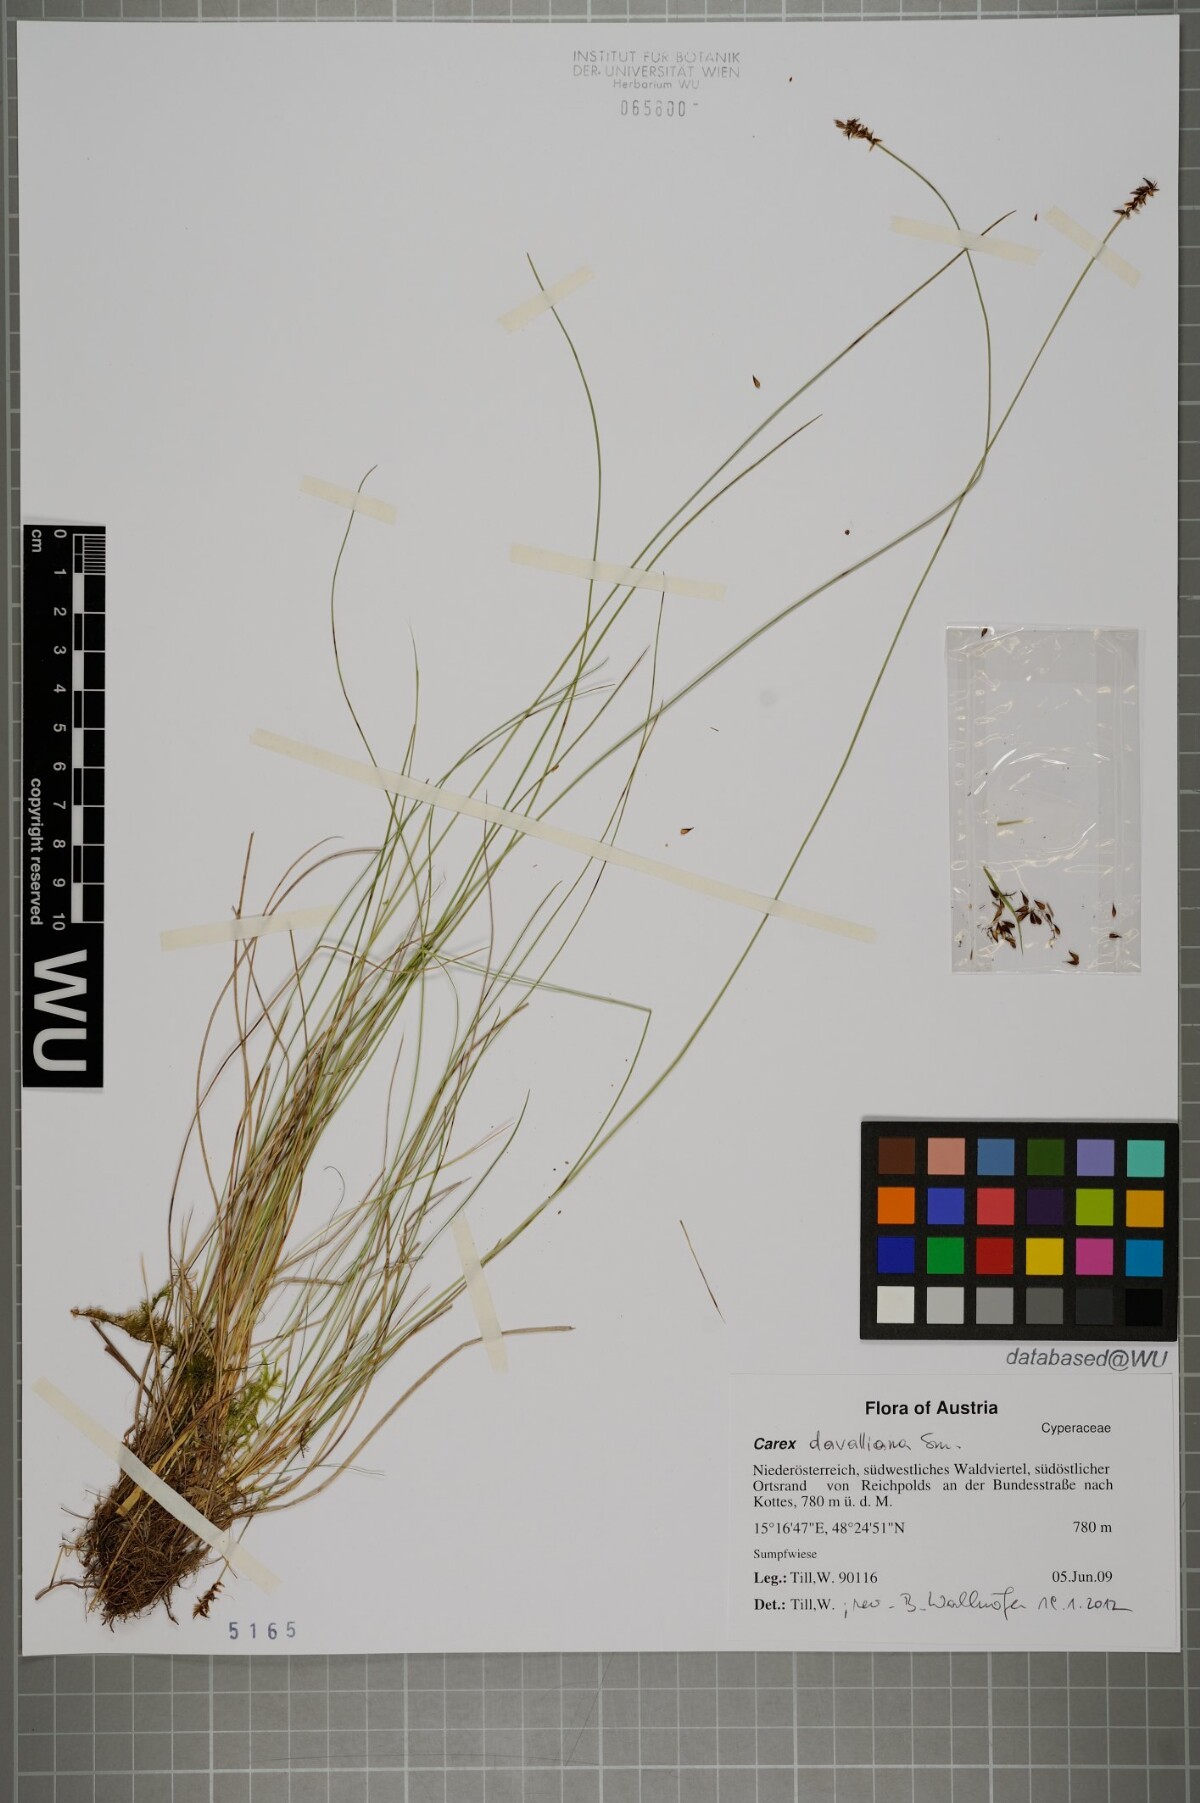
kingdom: Plantae
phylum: Tracheophyta
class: Liliopsida
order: Poales
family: Cyperaceae
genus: Carex
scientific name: Carex davalliana
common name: Davall's sedge
